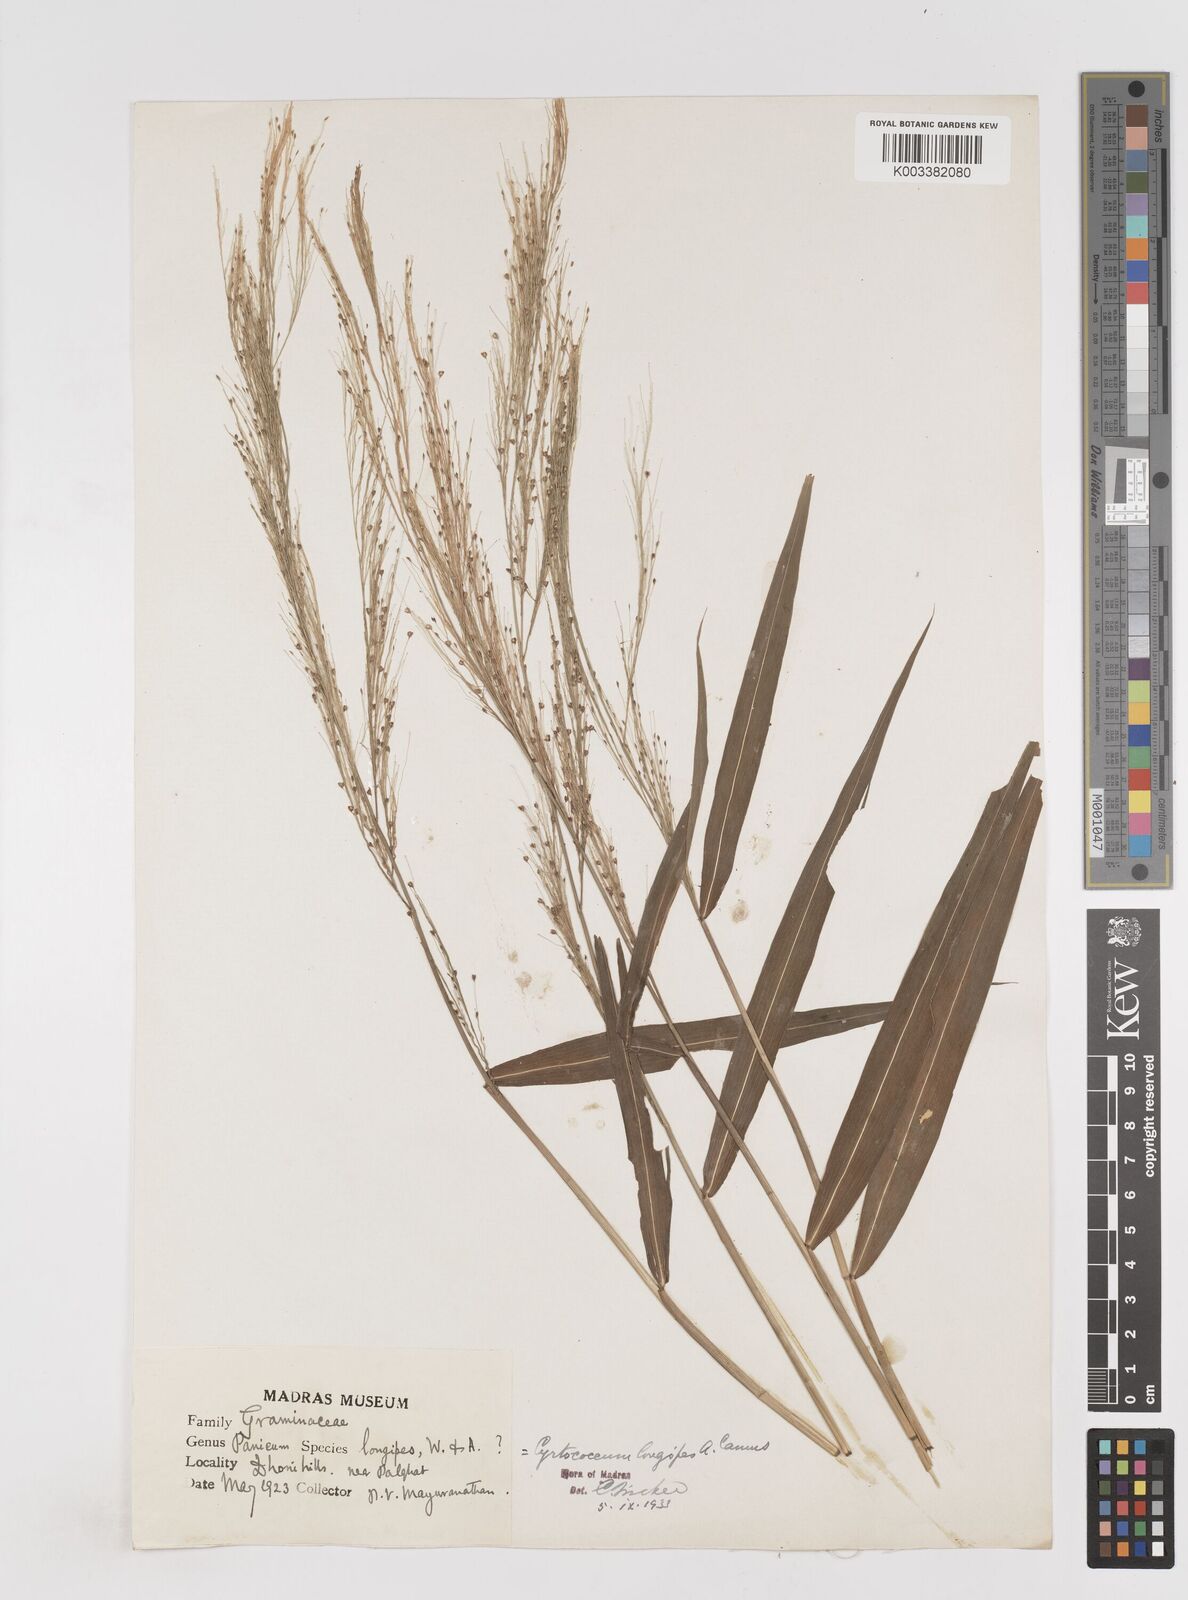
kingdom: Plantae
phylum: Tracheophyta
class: Liliopsida
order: Poales
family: Poaceae
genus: Cyrtococcum
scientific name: Cyrtococcum longipes
